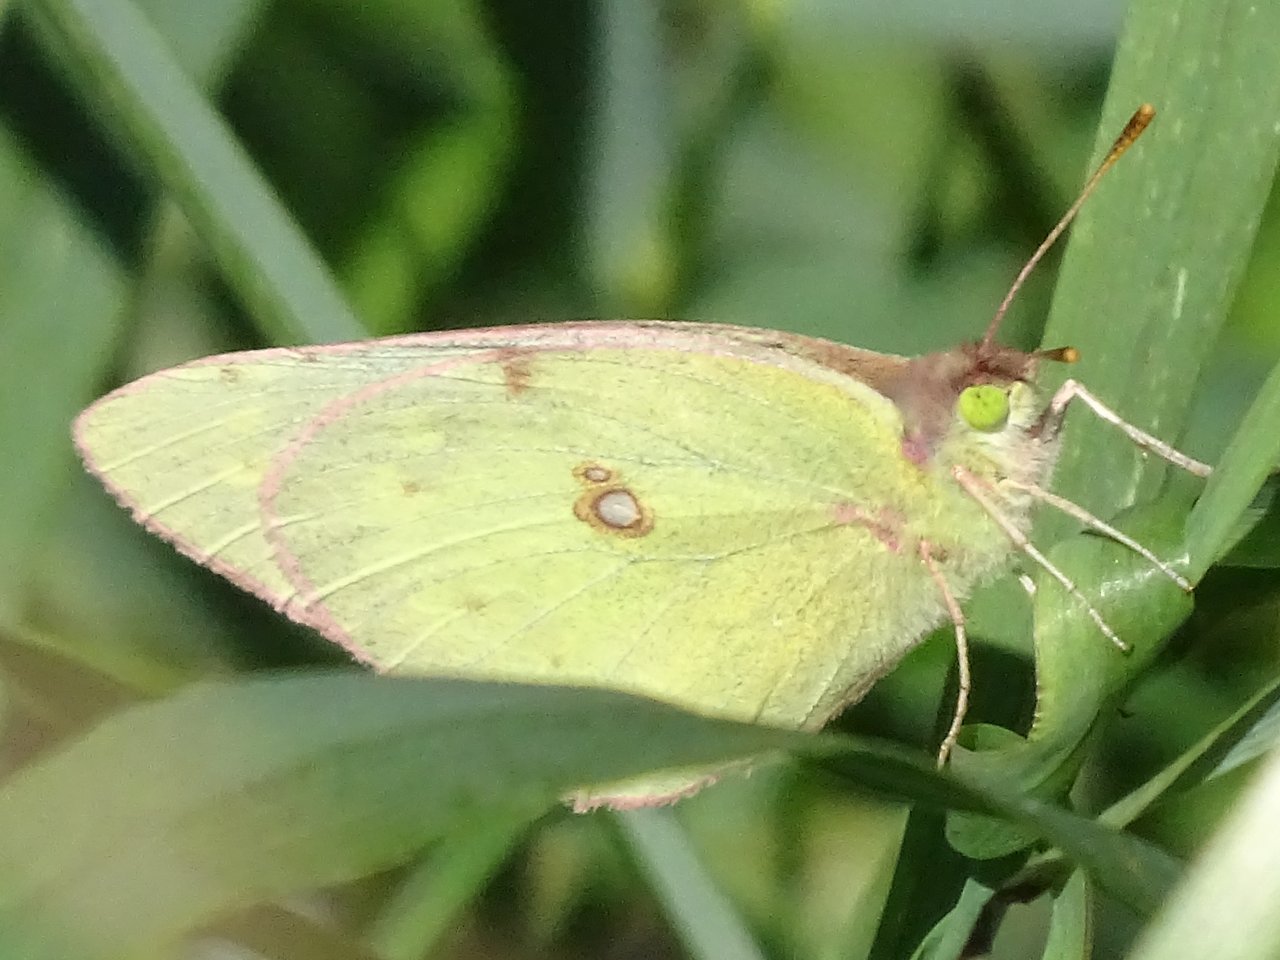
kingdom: Animalia
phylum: Arthropoda
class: Insecta
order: Lepidoptera
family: Pieridae
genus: Colias
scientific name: Colias philodice
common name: Clouded Sulphur
